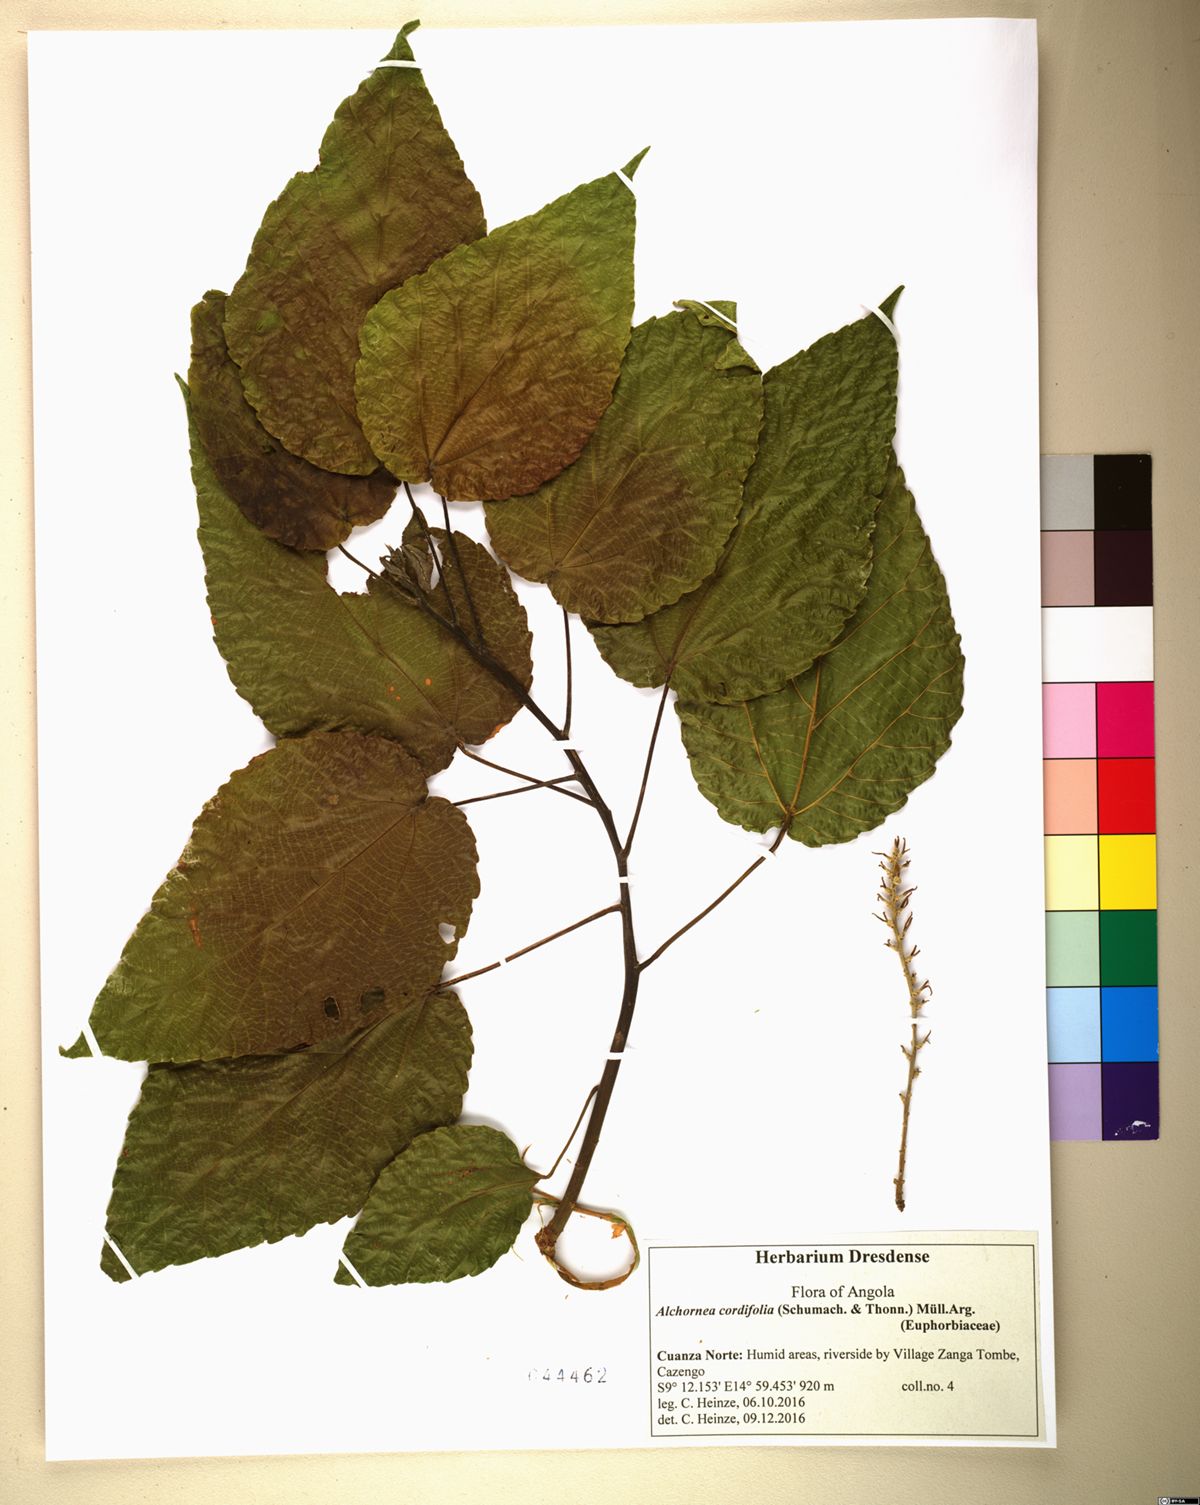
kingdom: Plantae
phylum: Tracheophyta
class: Magnoliopsida
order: Malpighiales
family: Euphorbiaceae
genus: Alchornea
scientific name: Alchornea cordifolia
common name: Christmasbush
